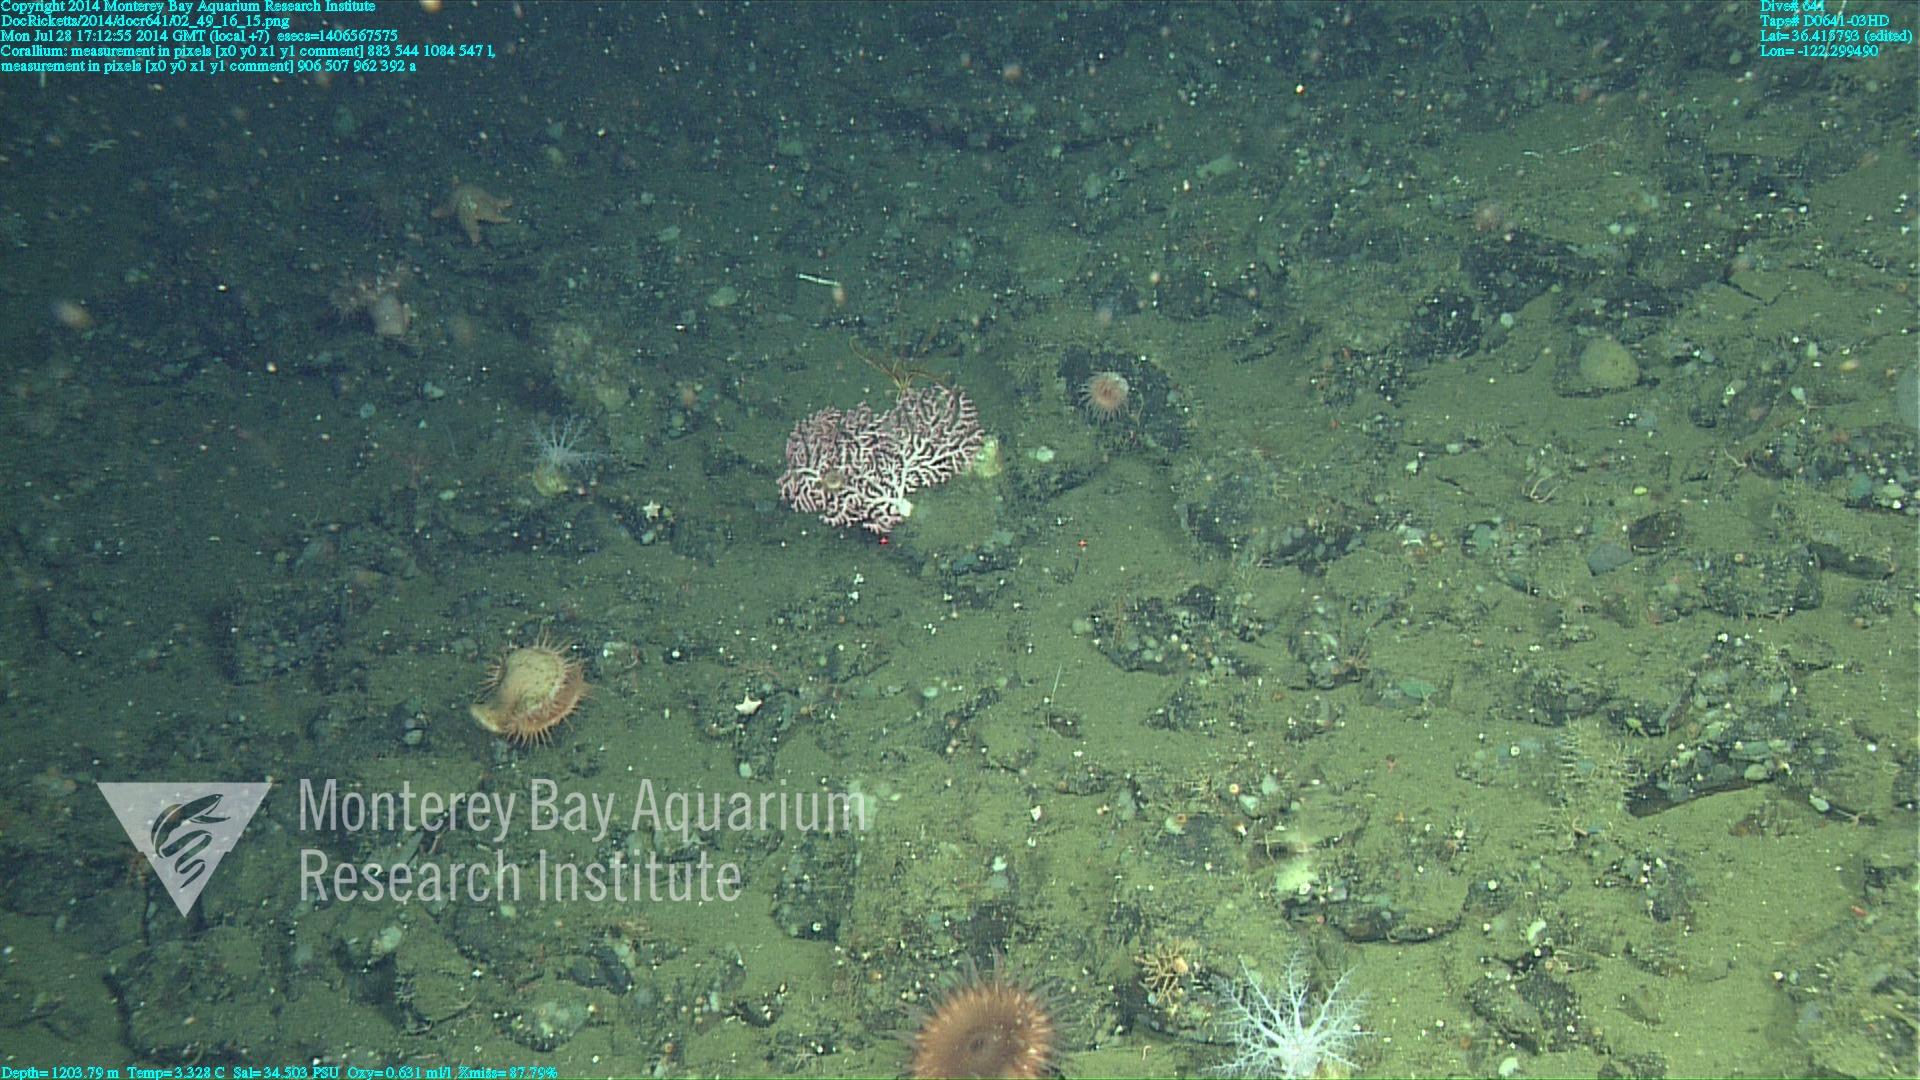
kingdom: Animalia
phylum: Cnidaria
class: Anthozoa
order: Scleralcyonacea
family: Coralliidae
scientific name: Coralliidae
